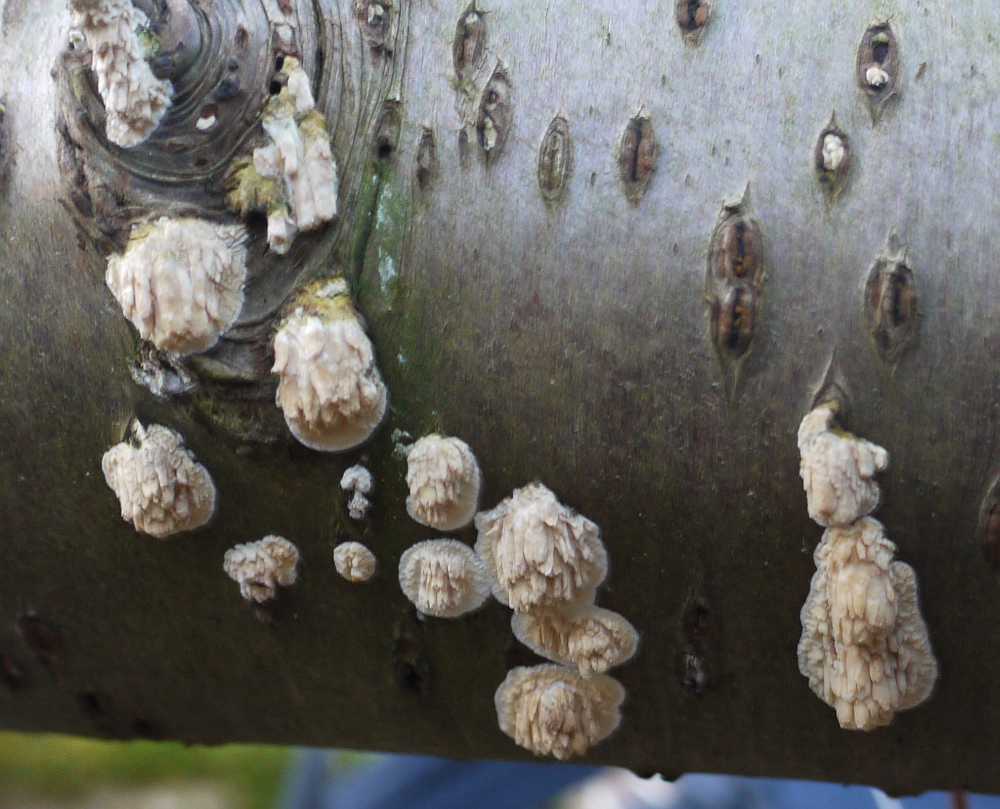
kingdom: Fungi
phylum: Basidiomycota
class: Agaricomycetes
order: Hymenochaetales
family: Schizoporaceae
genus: Xylodon
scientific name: Xylodon radula
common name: grovtandet kalkskind
